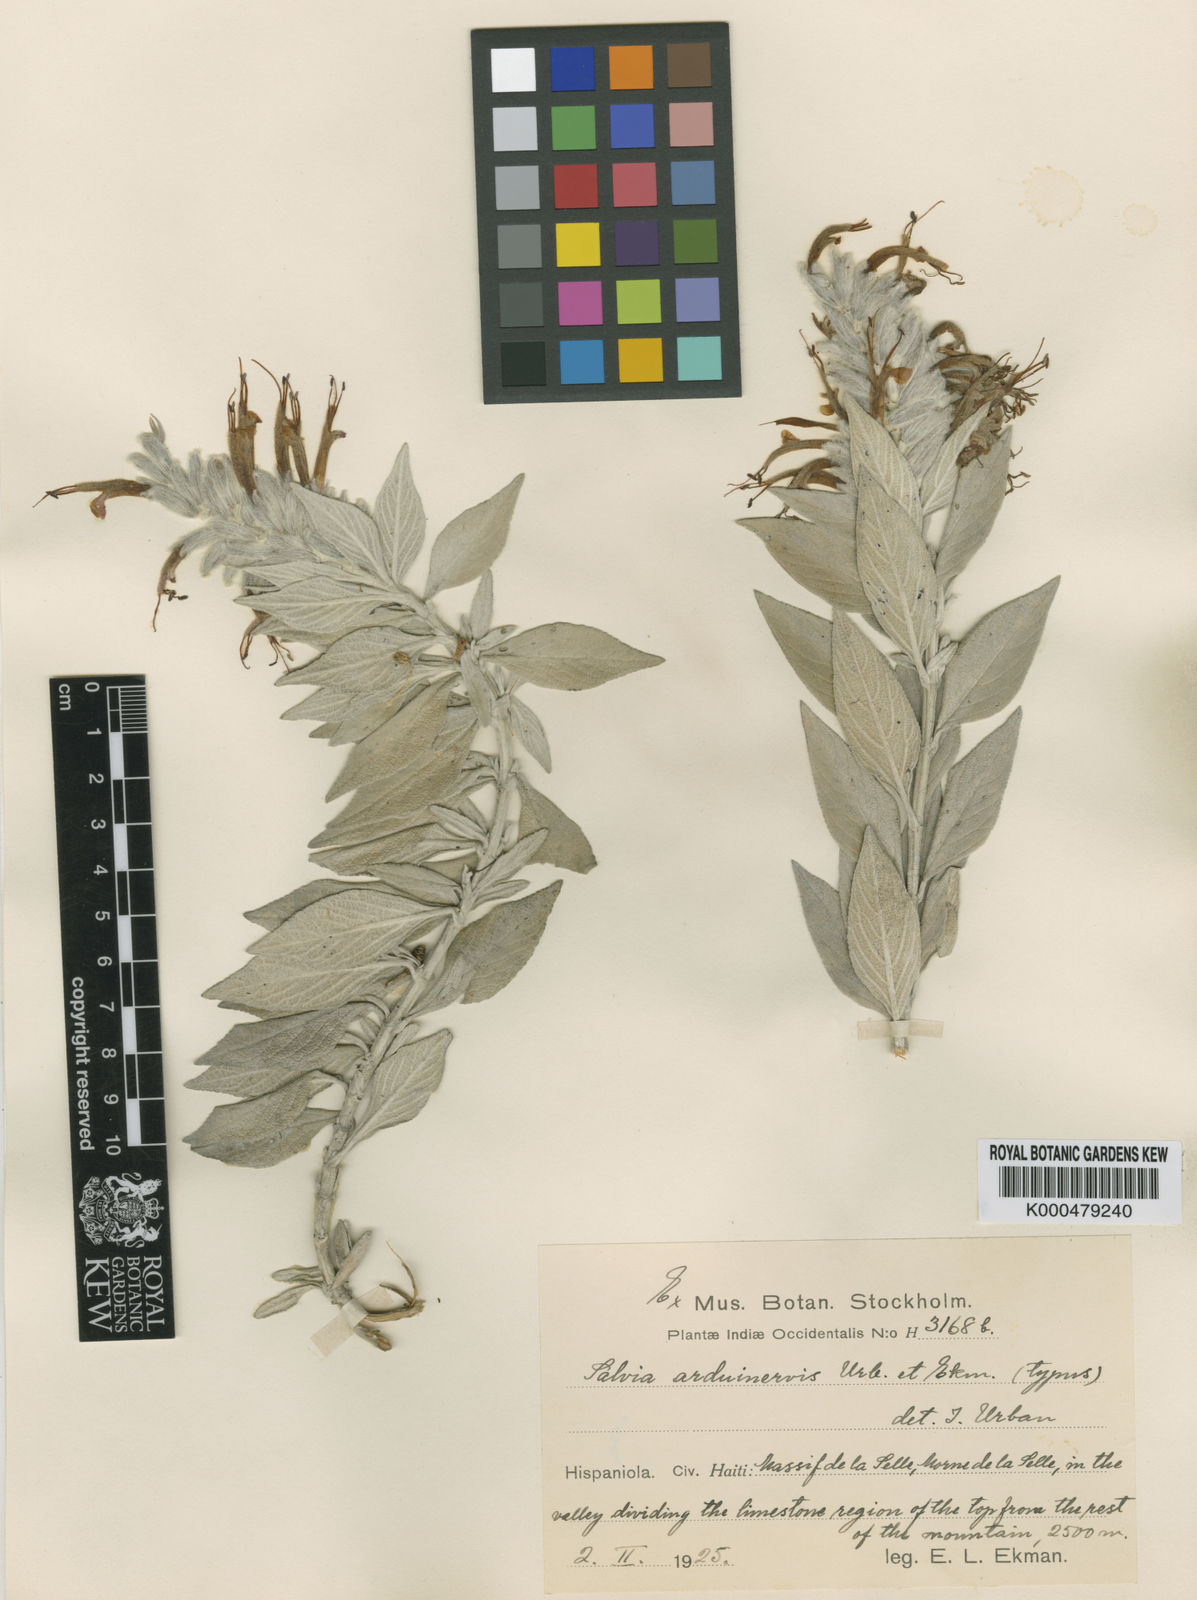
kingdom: Plantae
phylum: Tracheophyta
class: Magnoliopsida
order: Lamiales
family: Lamiaceae
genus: Salvia
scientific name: Salvia arduinervis
